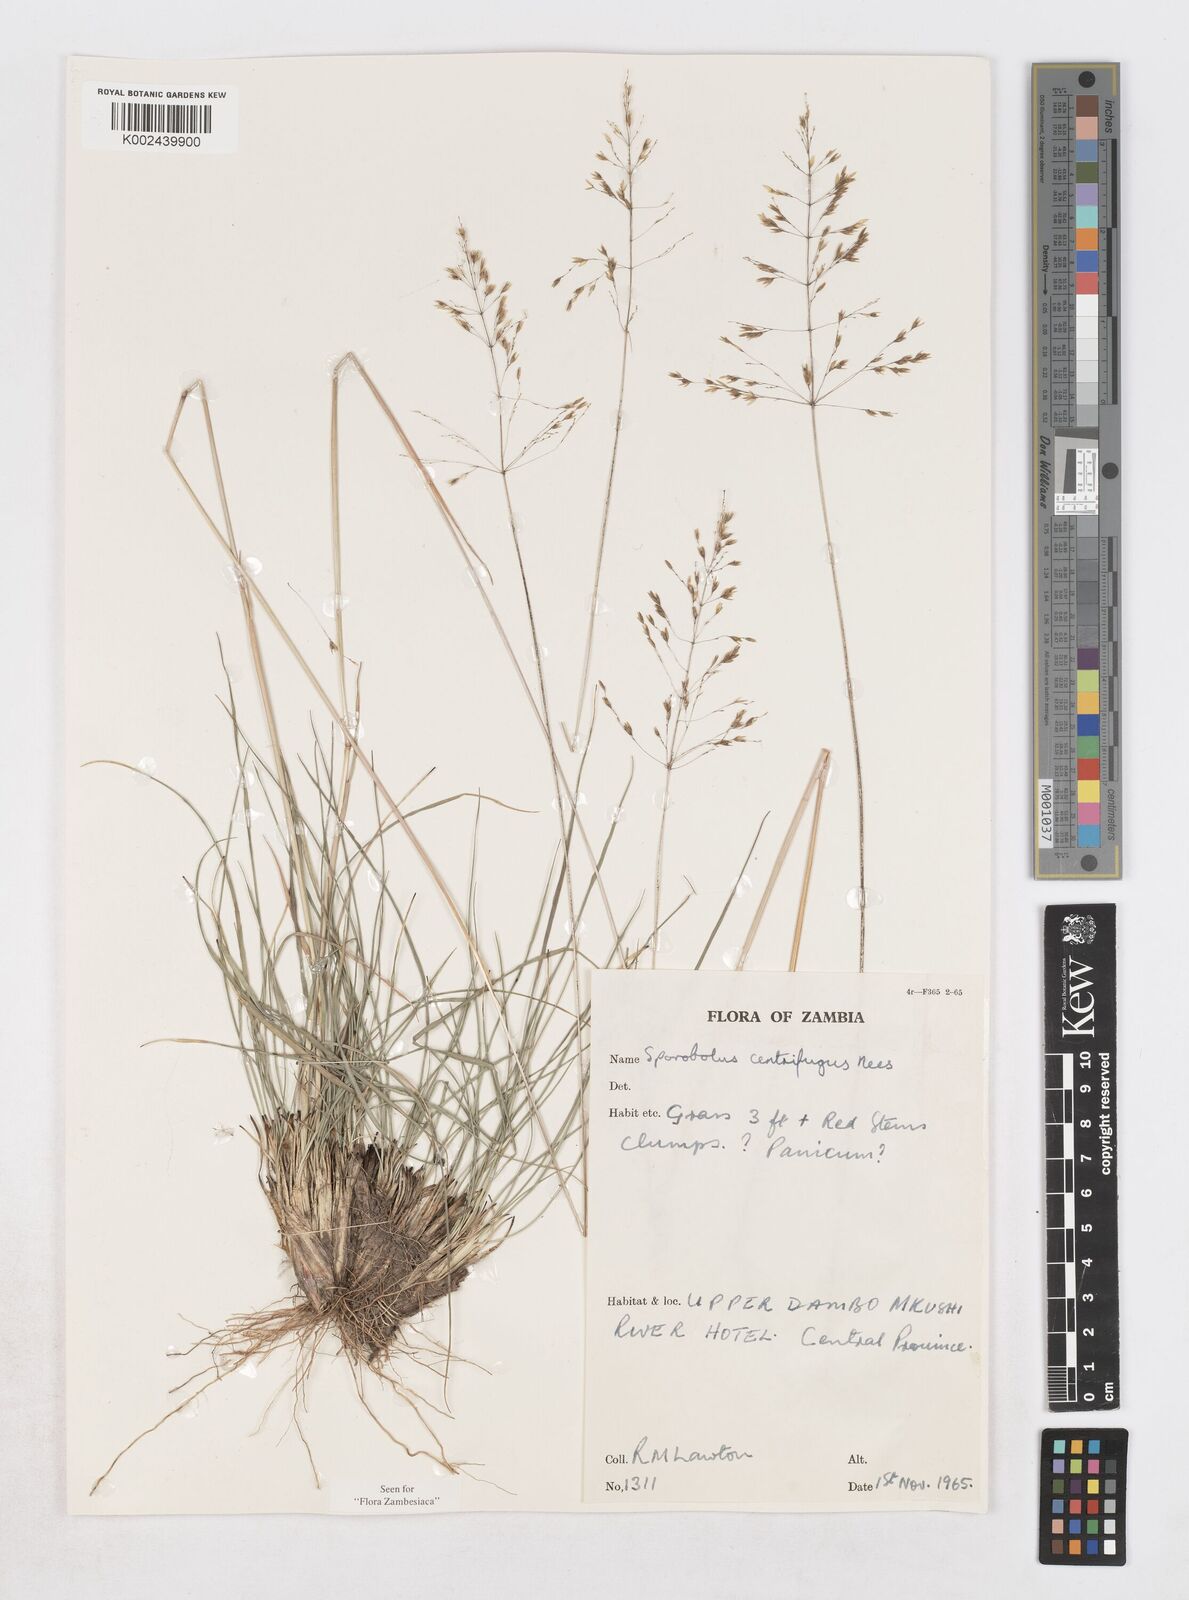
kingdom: Plantae
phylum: Tracheophyta
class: Liliopsida
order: Poales
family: Poaceae
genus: Sporobolus
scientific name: Sporobolus subulatus
